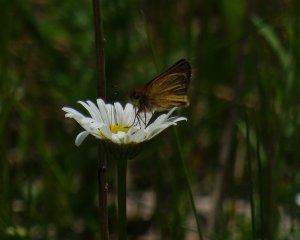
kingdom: Animalia
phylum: Arthropoda
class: Insecta
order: Lepidoptera
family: Hesperiidae
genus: Thymelicus
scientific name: Thymelicus lineola
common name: European Skipper
